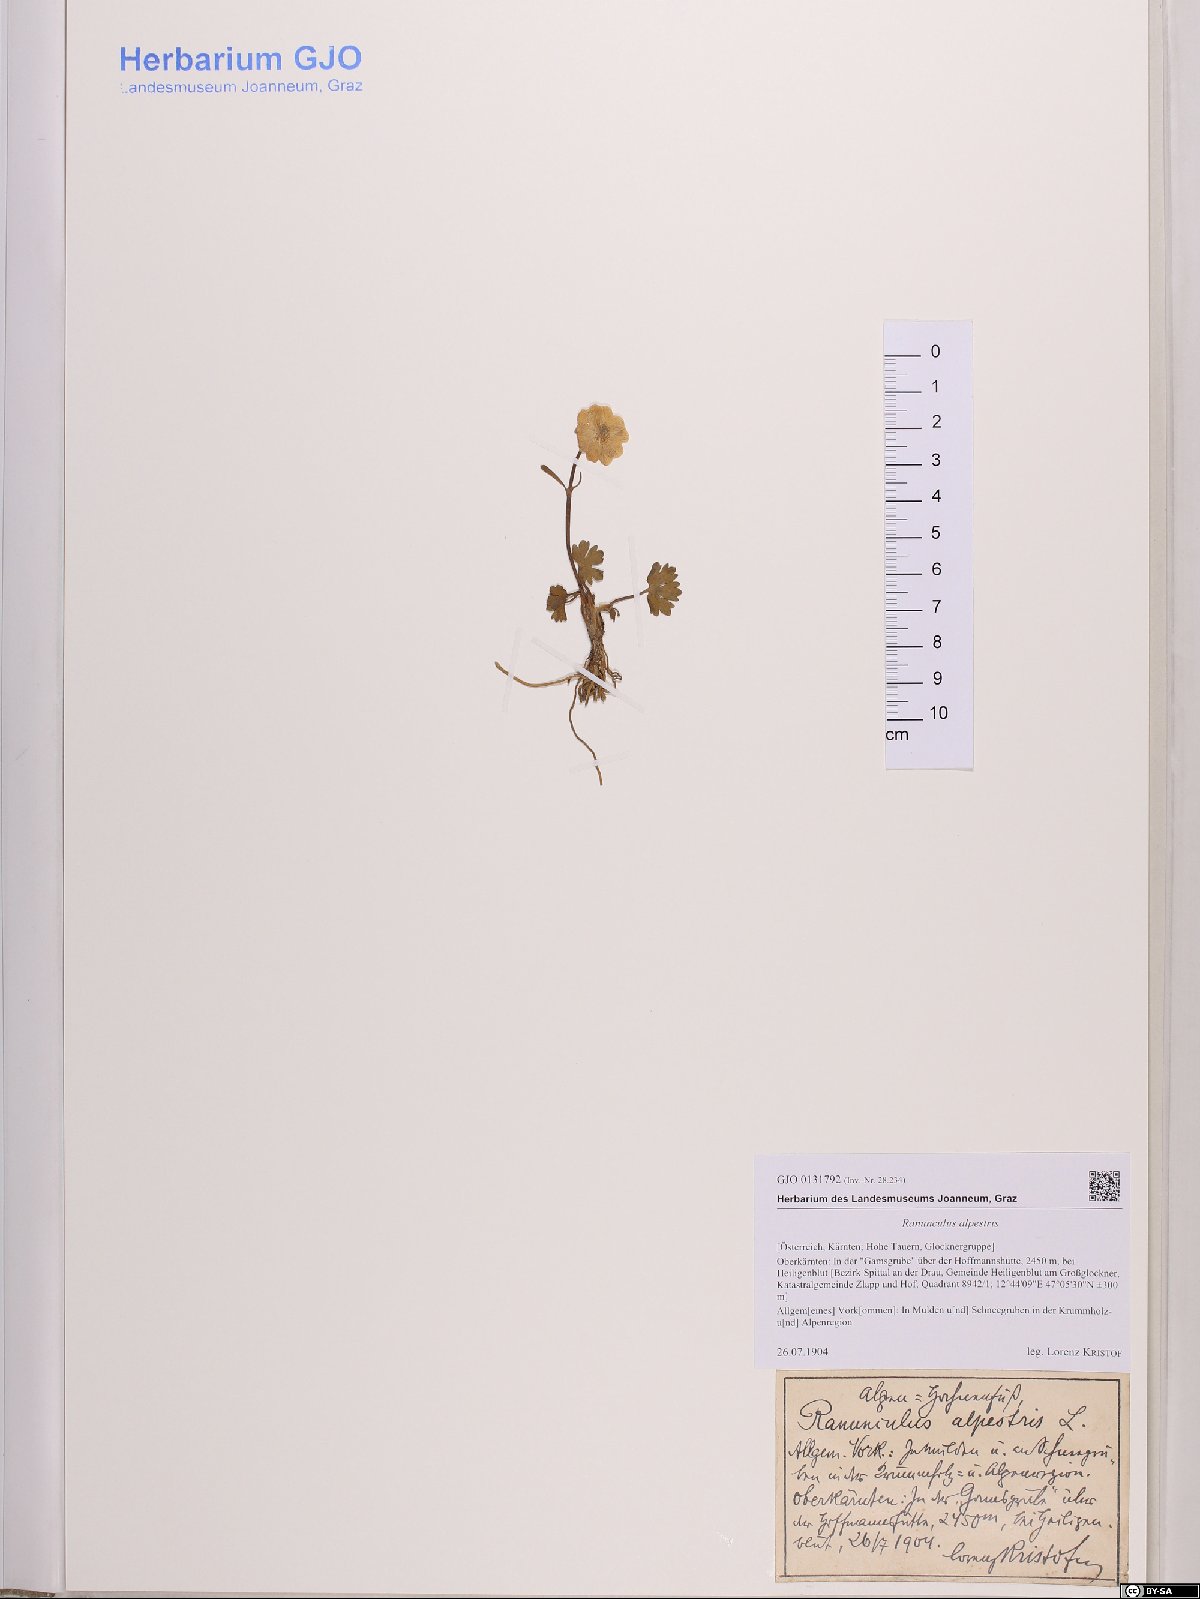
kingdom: Plantae
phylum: Tracheophyta
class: Magnoliopsida
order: Ranunculales
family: Ranunculaceae
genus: Ranunculus
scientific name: Ranunculus alpestris
